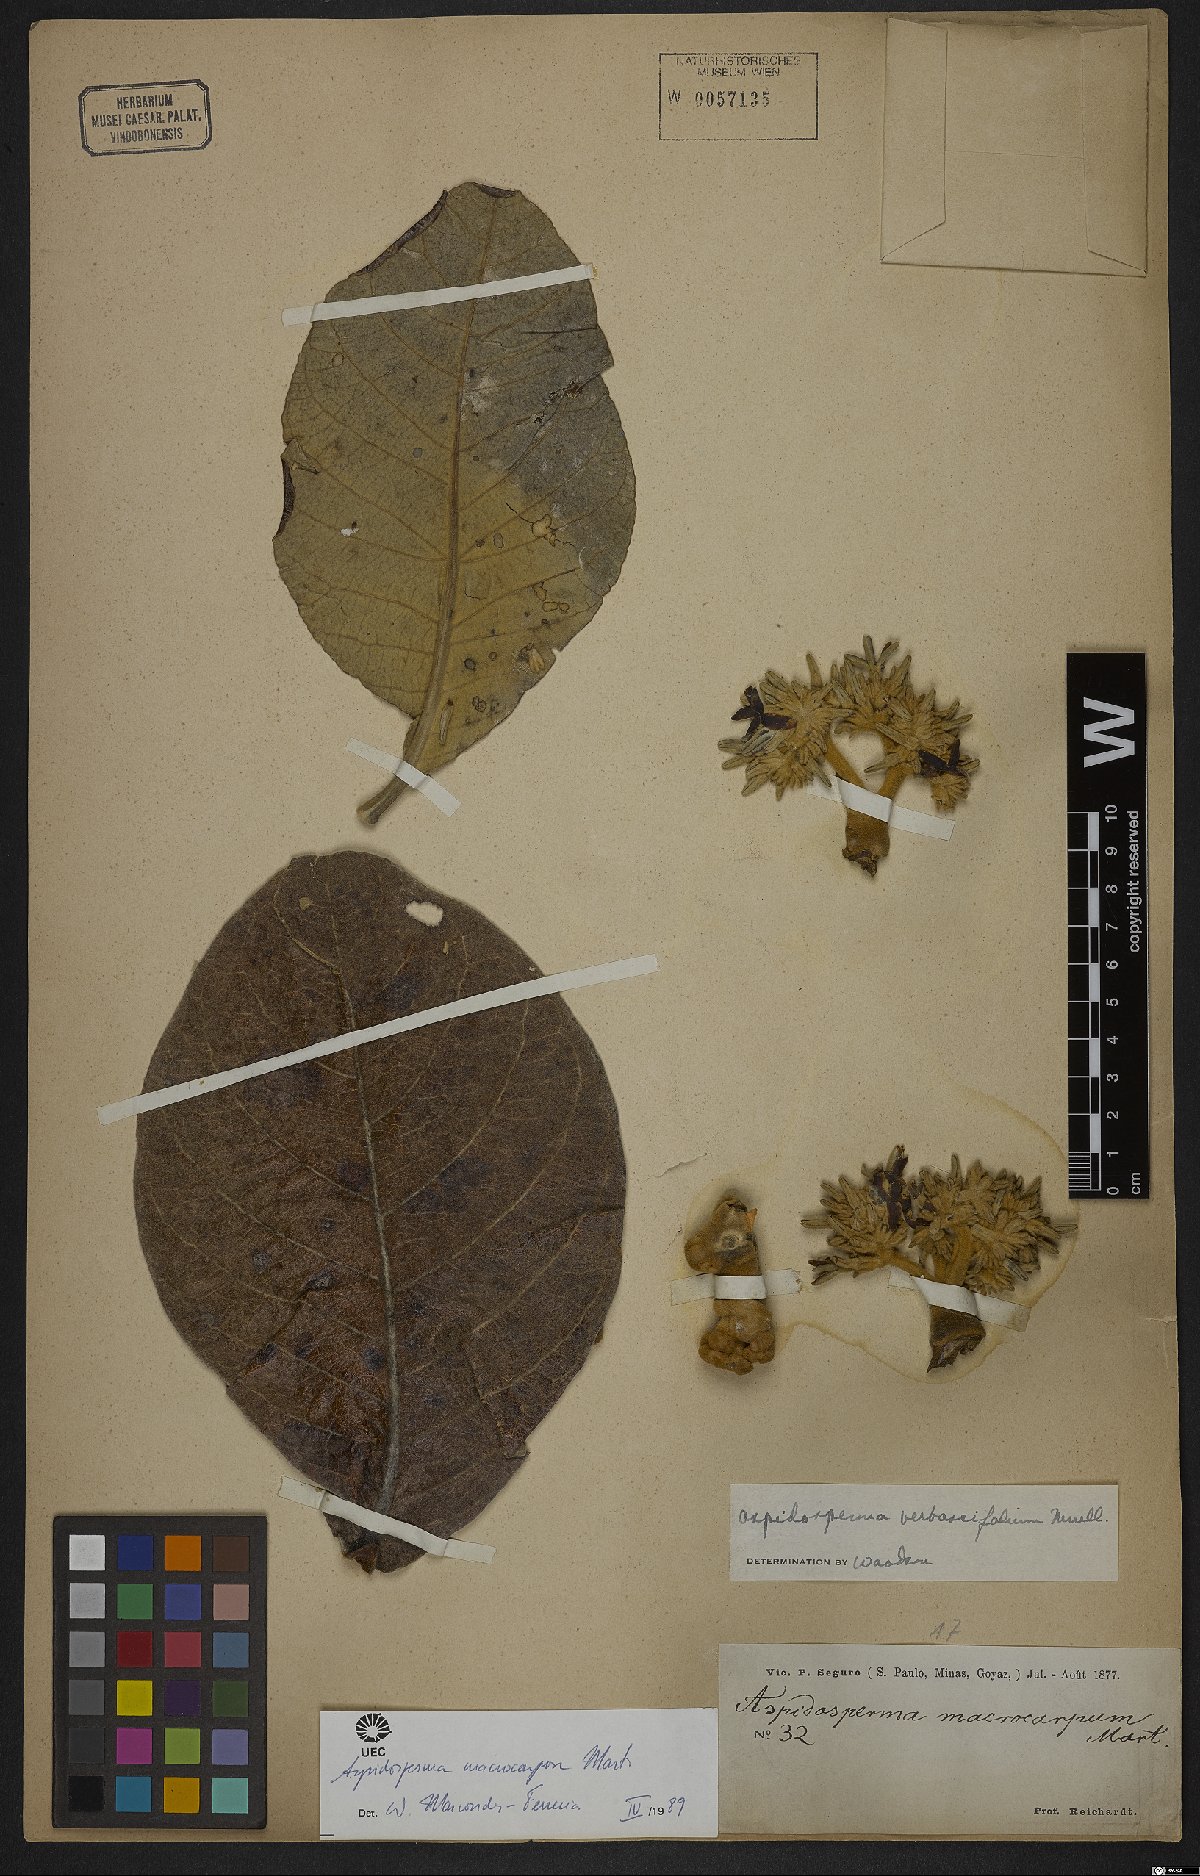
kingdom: Plantae
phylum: Tracheophyta
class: Magnoliopsida
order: Gentianales
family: Apocynaceae
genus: Aspidosperma
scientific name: Aspidosperma macrocarpon
